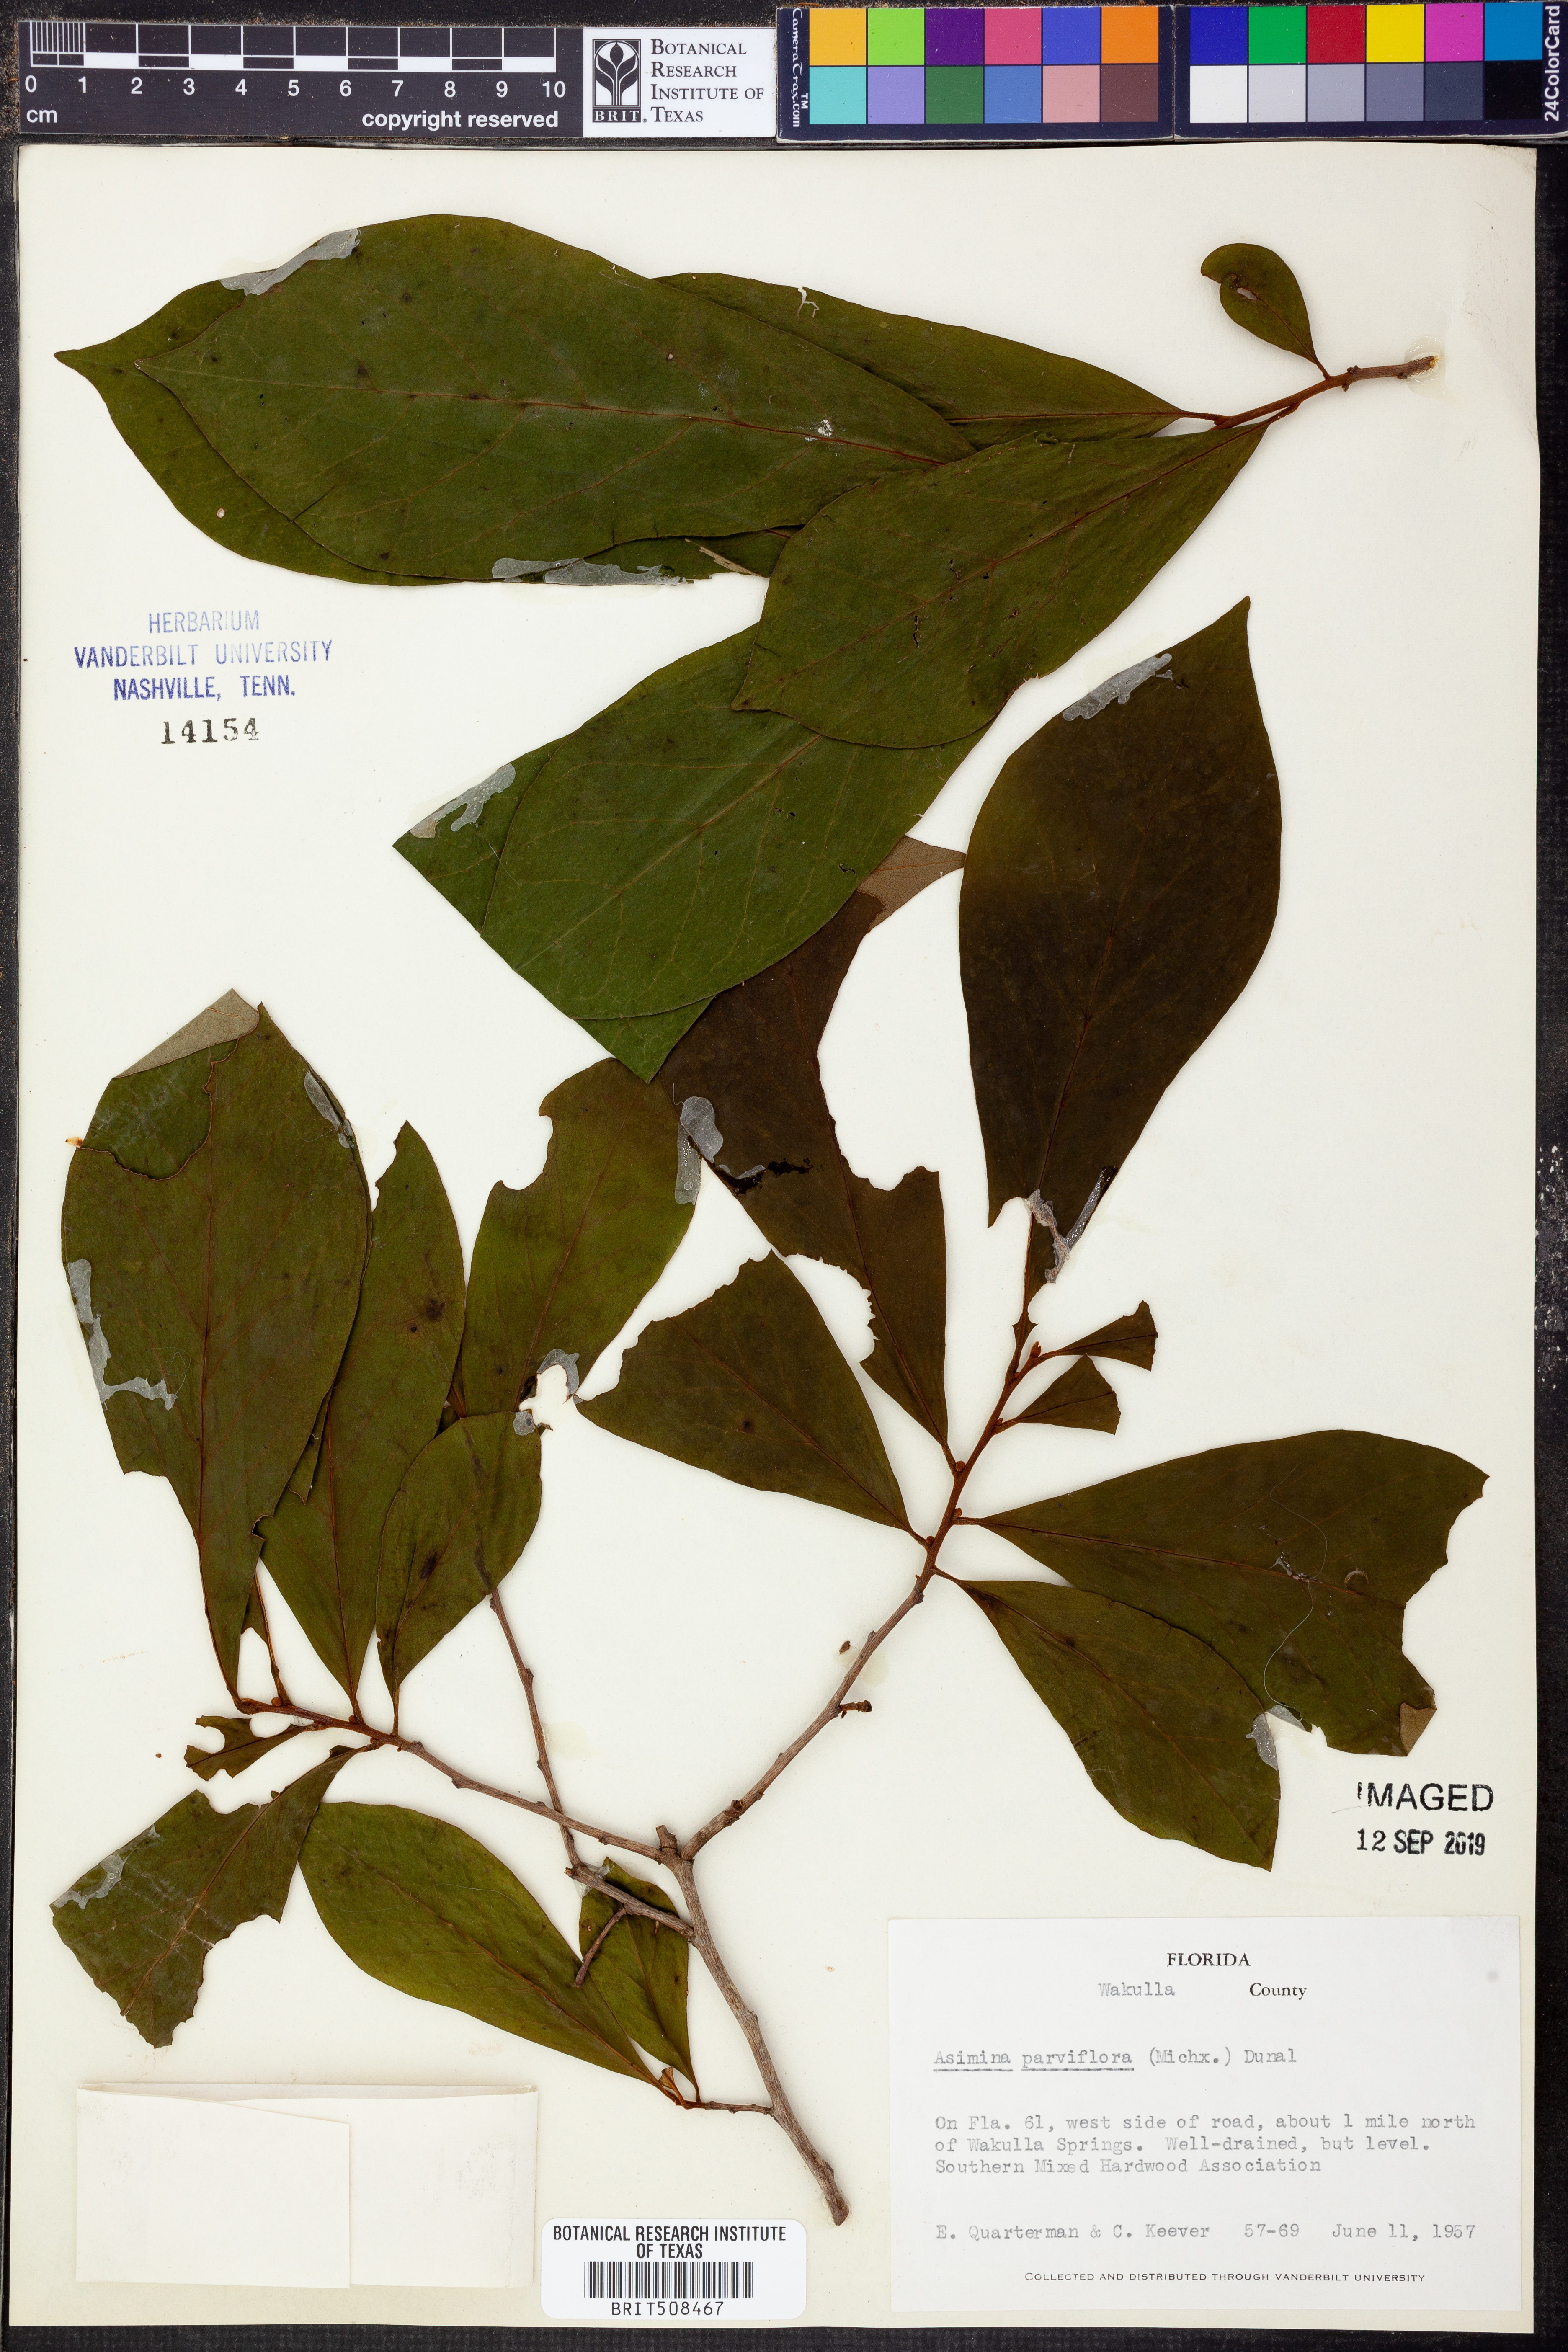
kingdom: Plantae
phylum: Tracheophyta
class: Magnoliopsida
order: Magnoliales
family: Annonaceae
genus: Asimina
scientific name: Asimina parviflora
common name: Dwarf pawpaw
